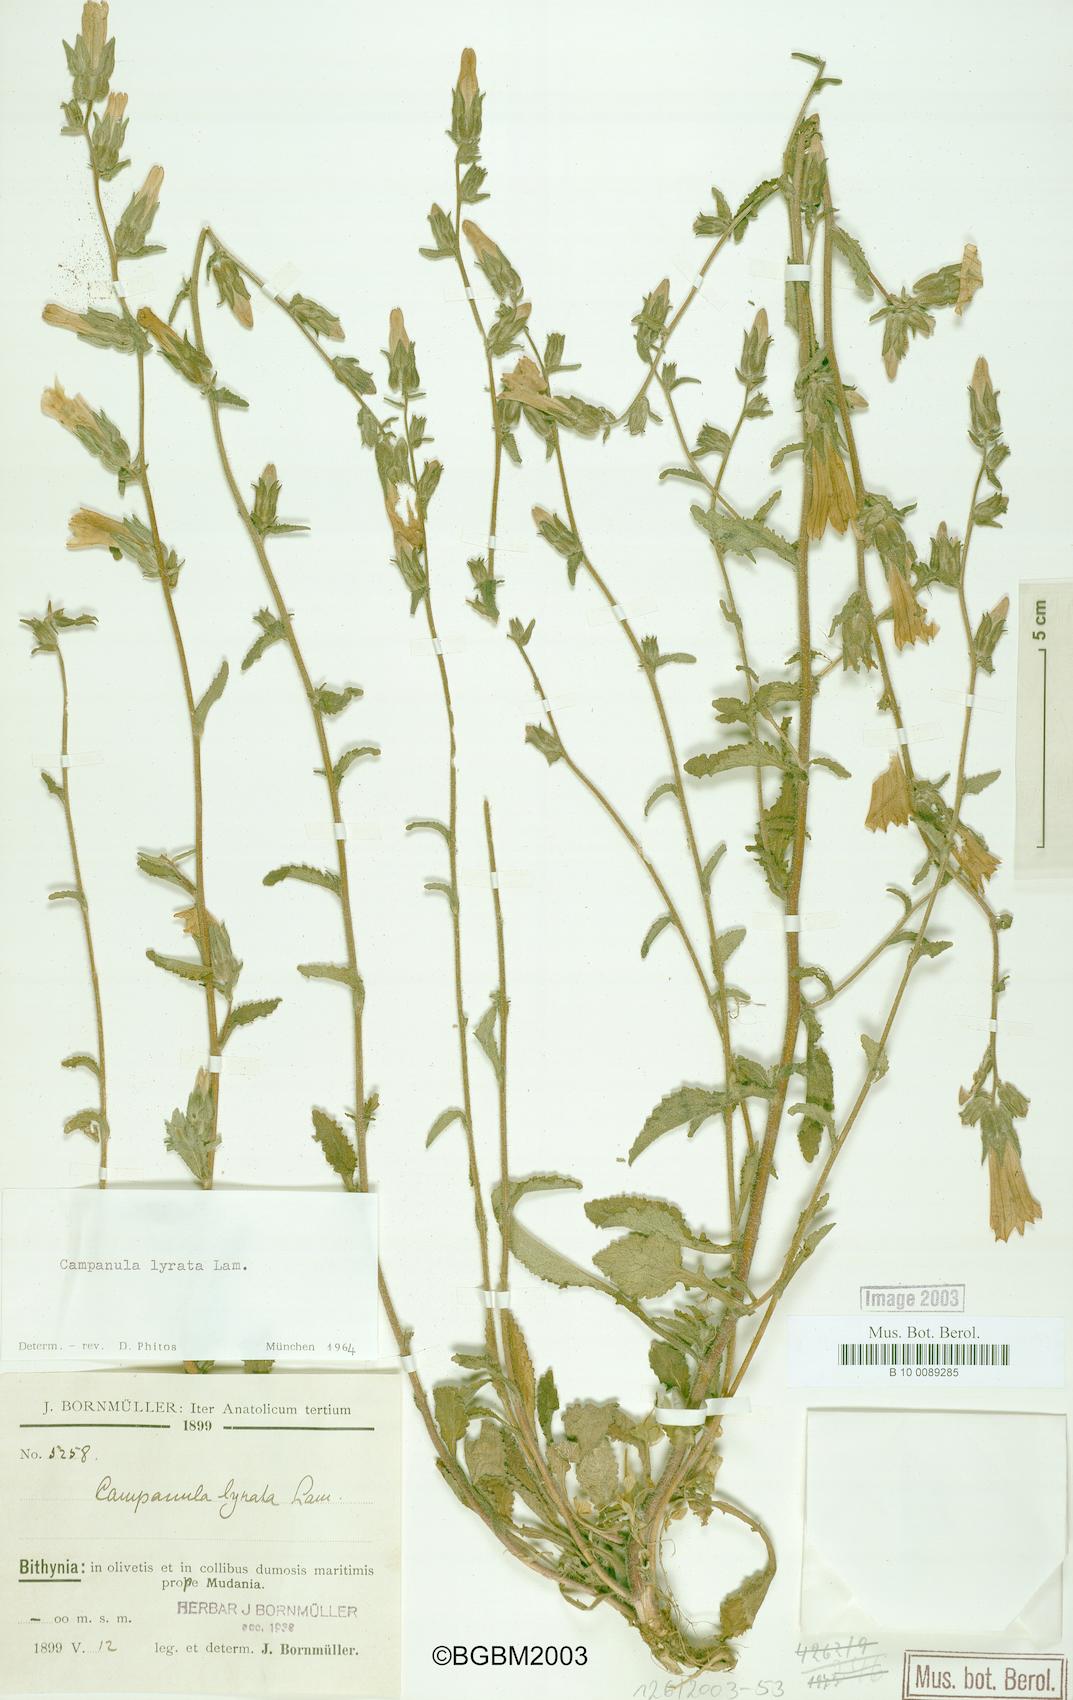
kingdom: Plantae
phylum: Tracheophyta
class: Magnoliopsida
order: Asterales
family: Campanulaceae
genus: Campanula
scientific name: Campanula lyrata
